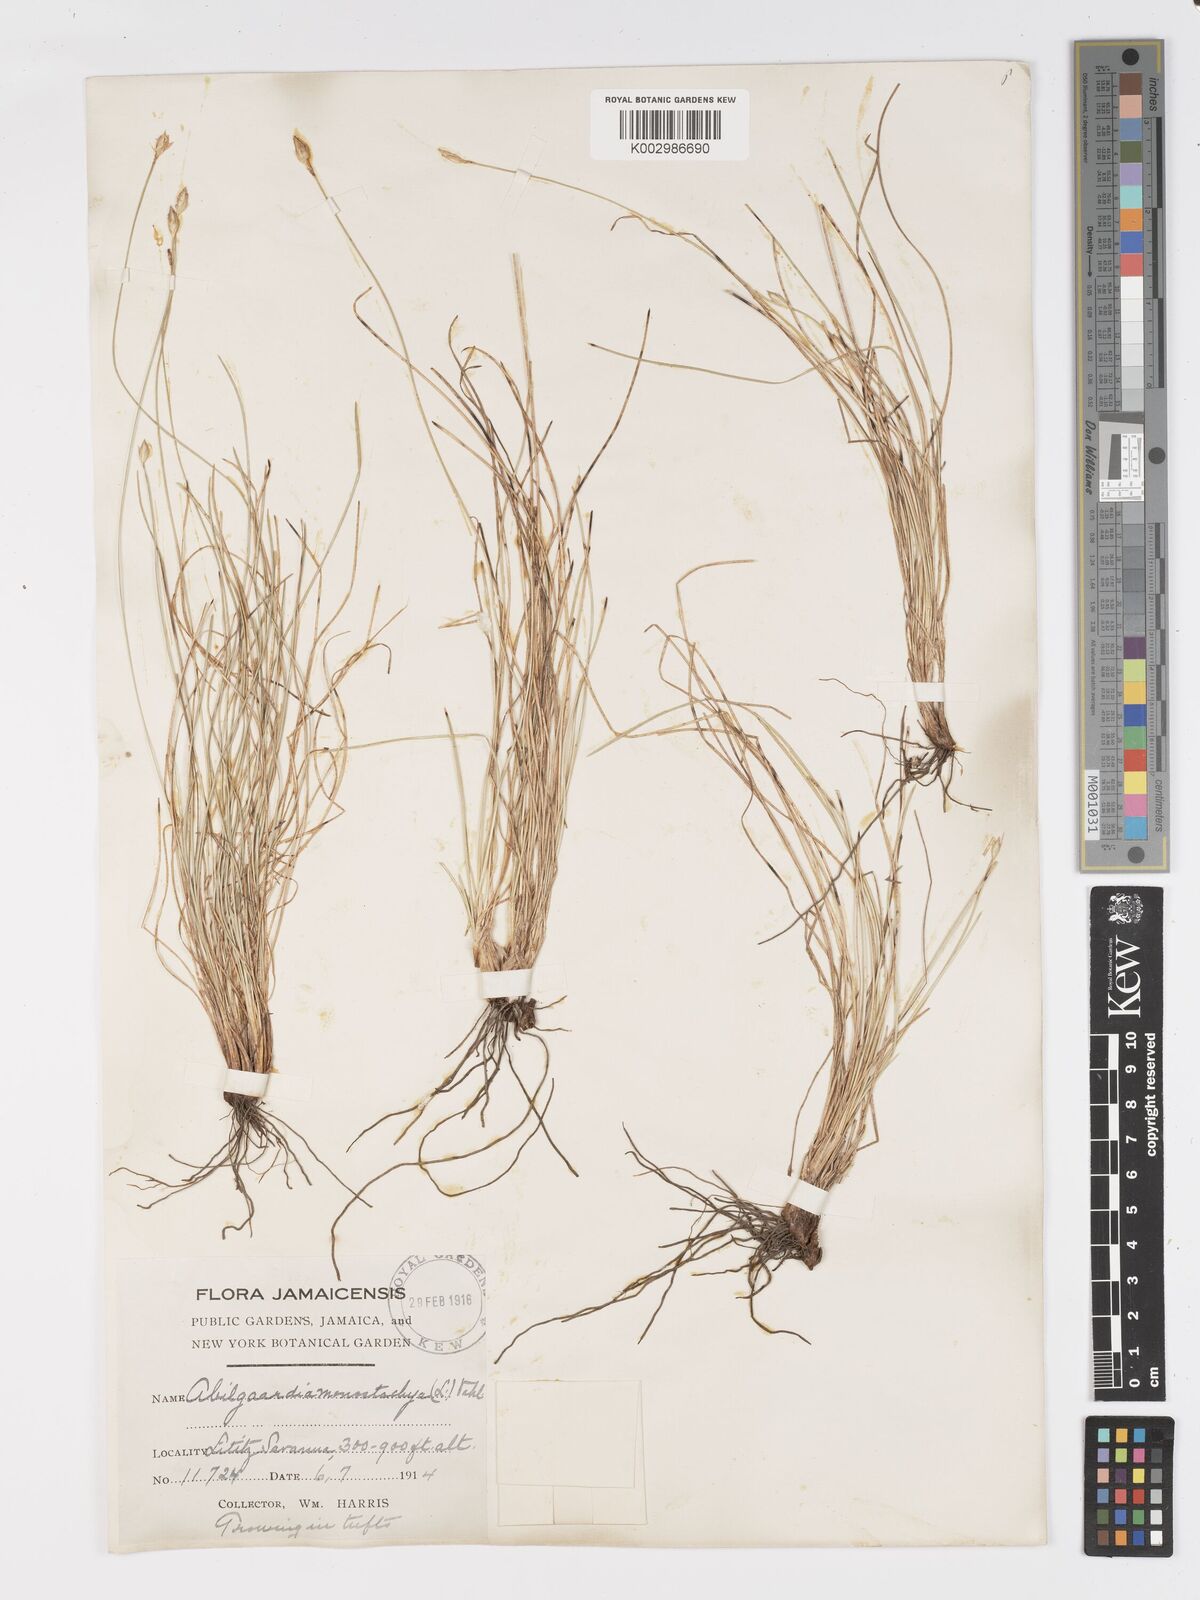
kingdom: Plantae
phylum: Tracheophyta
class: Liliopsida
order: Poales
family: Cyperaceae
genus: Abildgaardia
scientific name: Abildgaardia ovata
